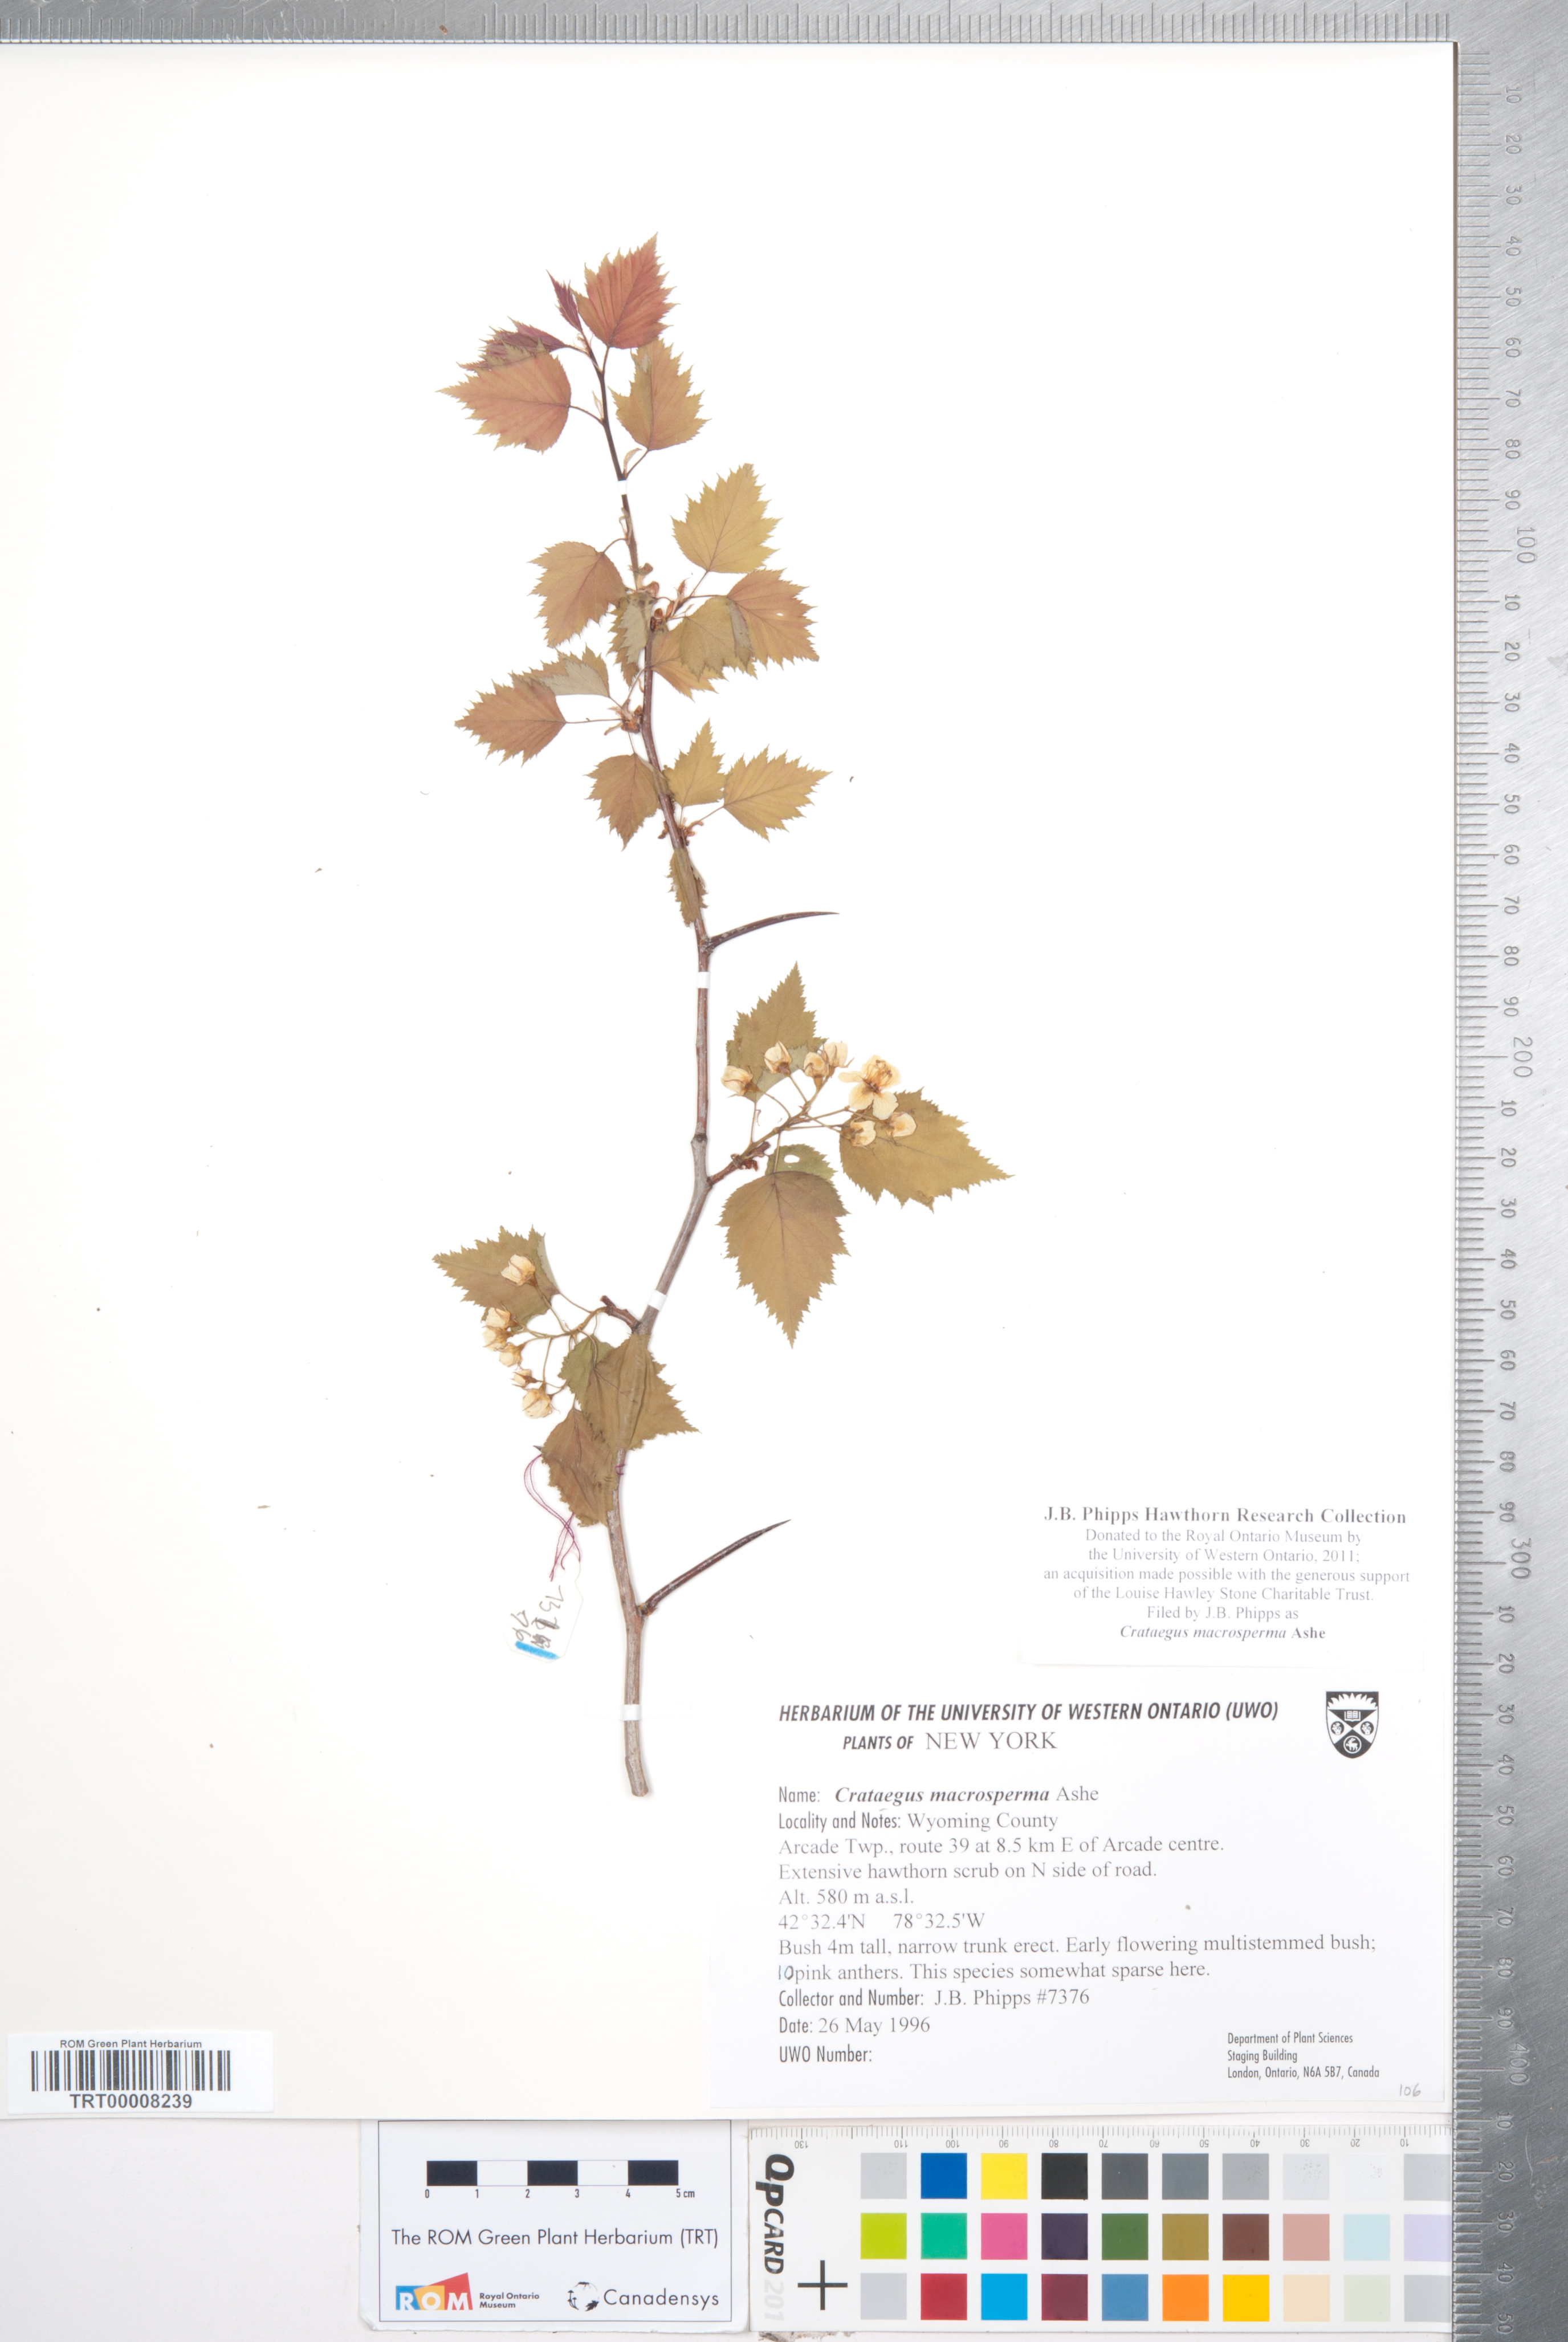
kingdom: Plantae
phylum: Tracheophyta
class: Magnoliopsida
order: Rosales
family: Rosaceae
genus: Crataegus
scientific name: Crataegus macrosperma
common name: Variable hawthorn
